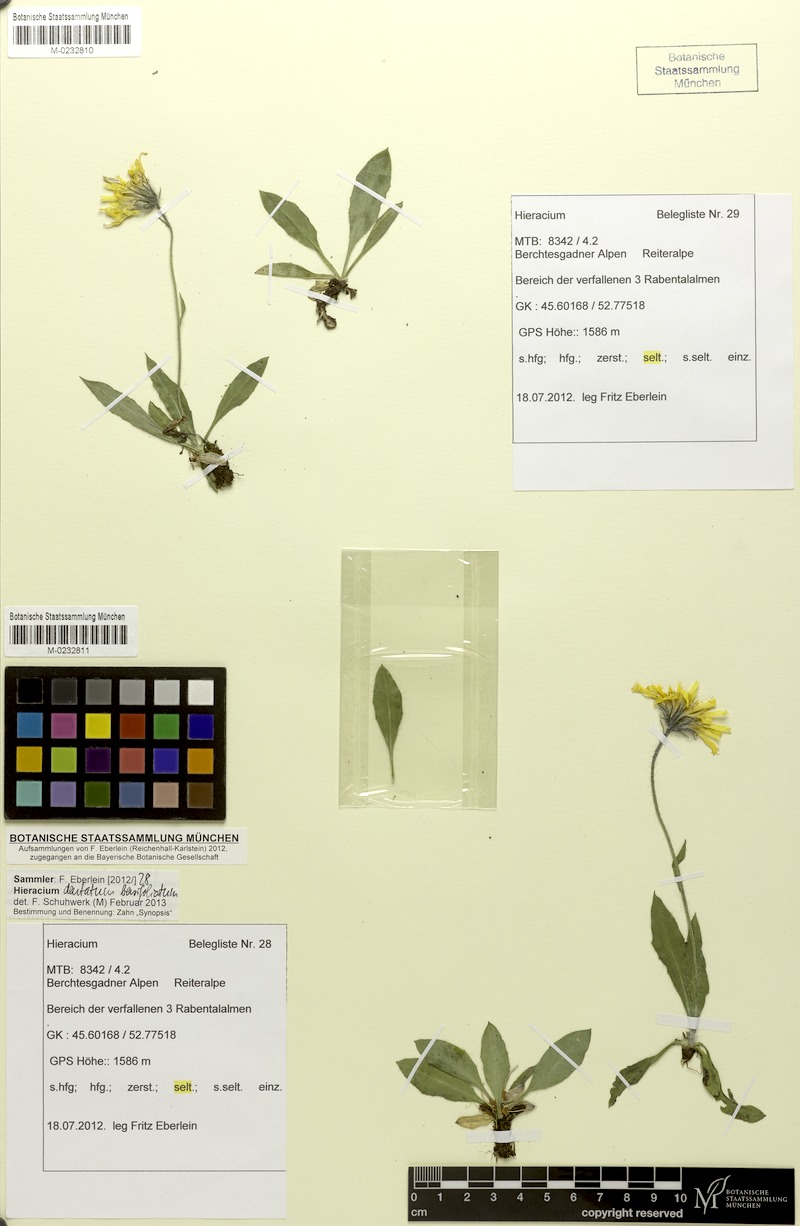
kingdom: Plantae
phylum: Tracheophyta
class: Magnoliopsida
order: Asterales
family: Asteraceae
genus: Hieracium
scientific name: Hieracium dentatum
